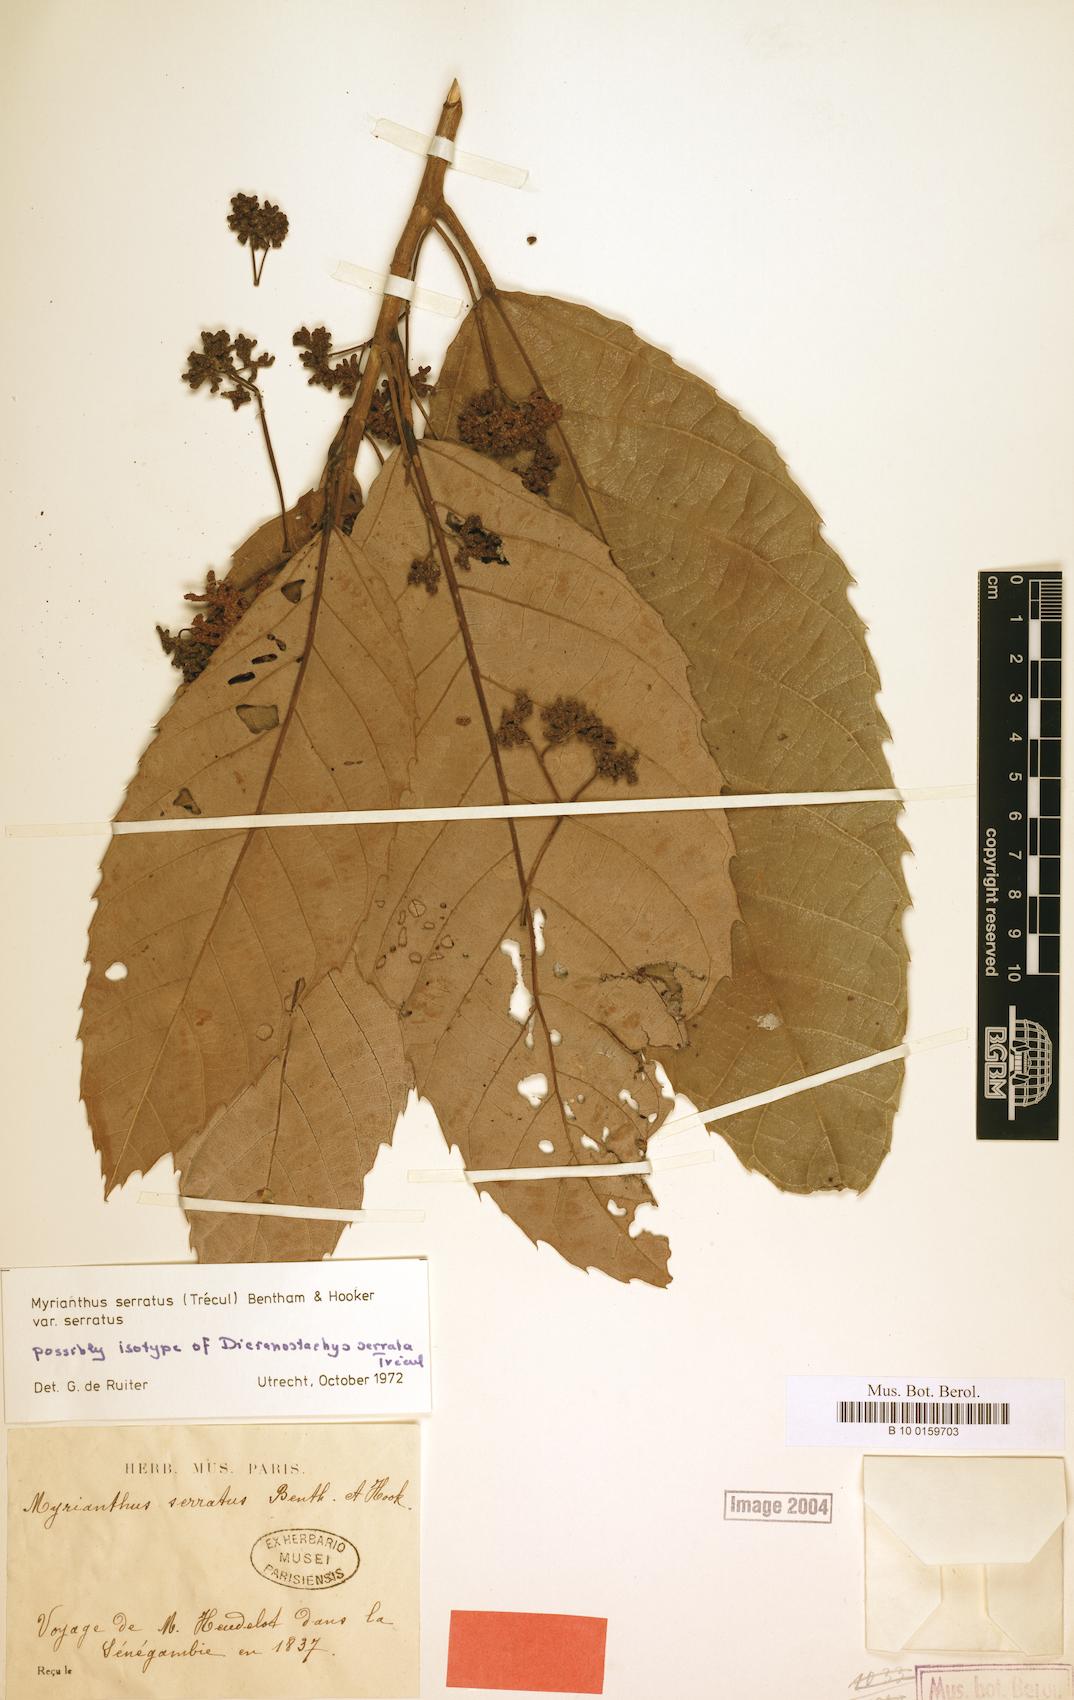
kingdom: Plantae
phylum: Tracheophyta
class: Magnoliopsida
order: Rosales
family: Urticaceae
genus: Myrianthus
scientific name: Myrianthus serratus
